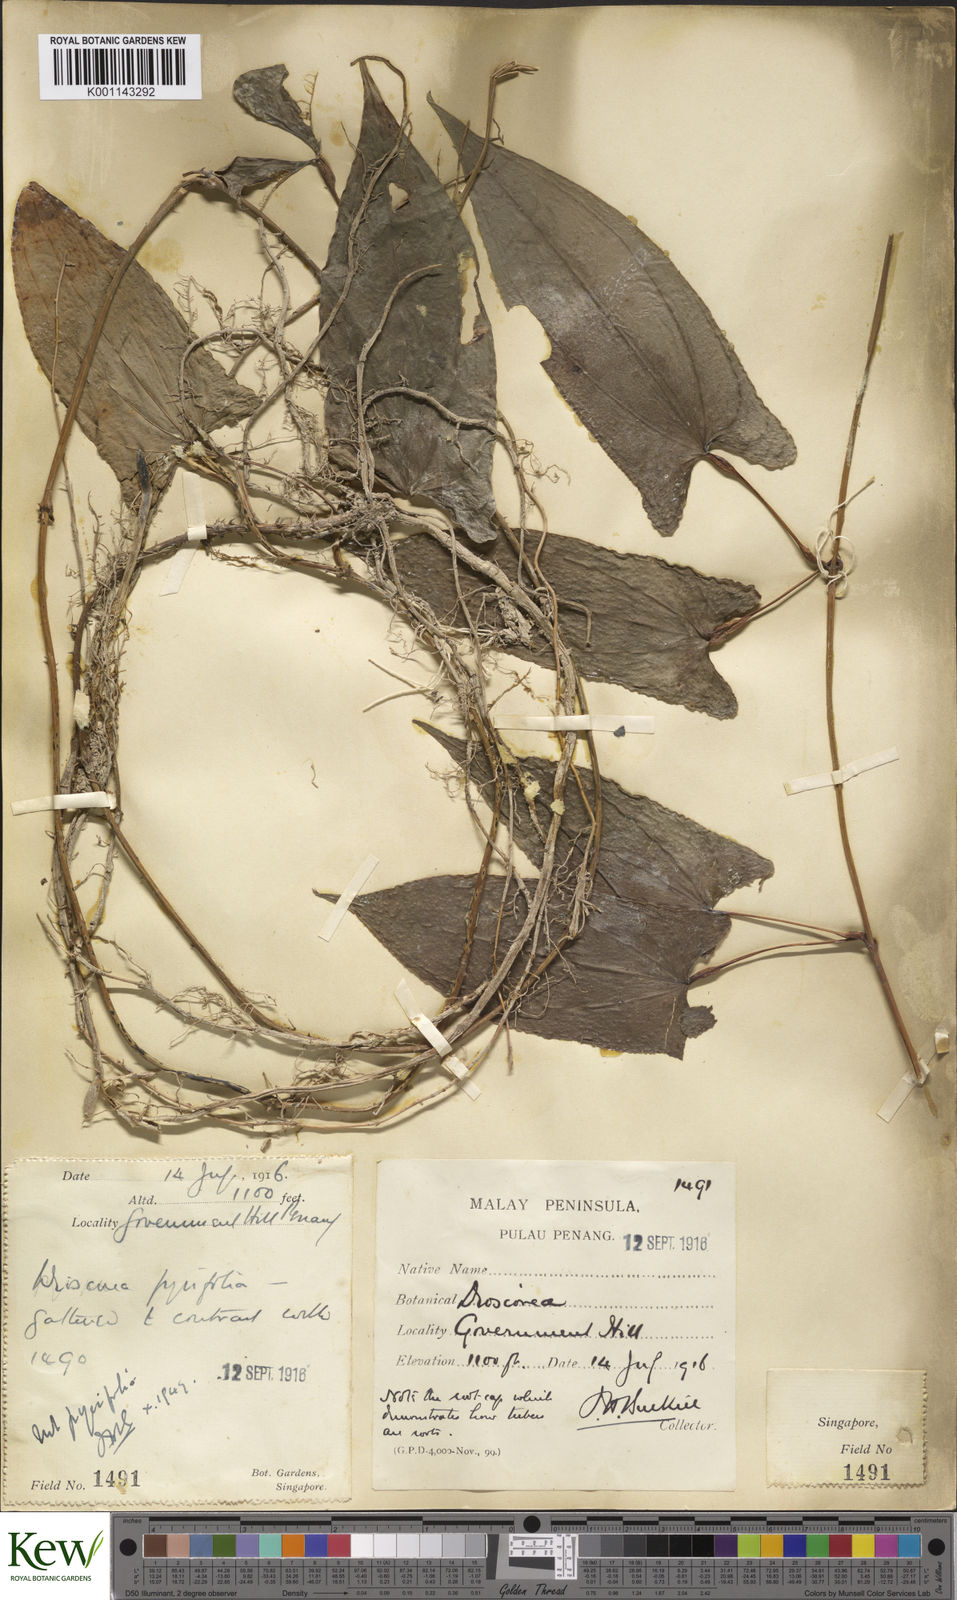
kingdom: Plantae
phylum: Tracheophyta
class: Liliopsida
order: Dioscoreales
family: Dioscoreaceae
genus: Dioscorea
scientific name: Dioscorea glabra
